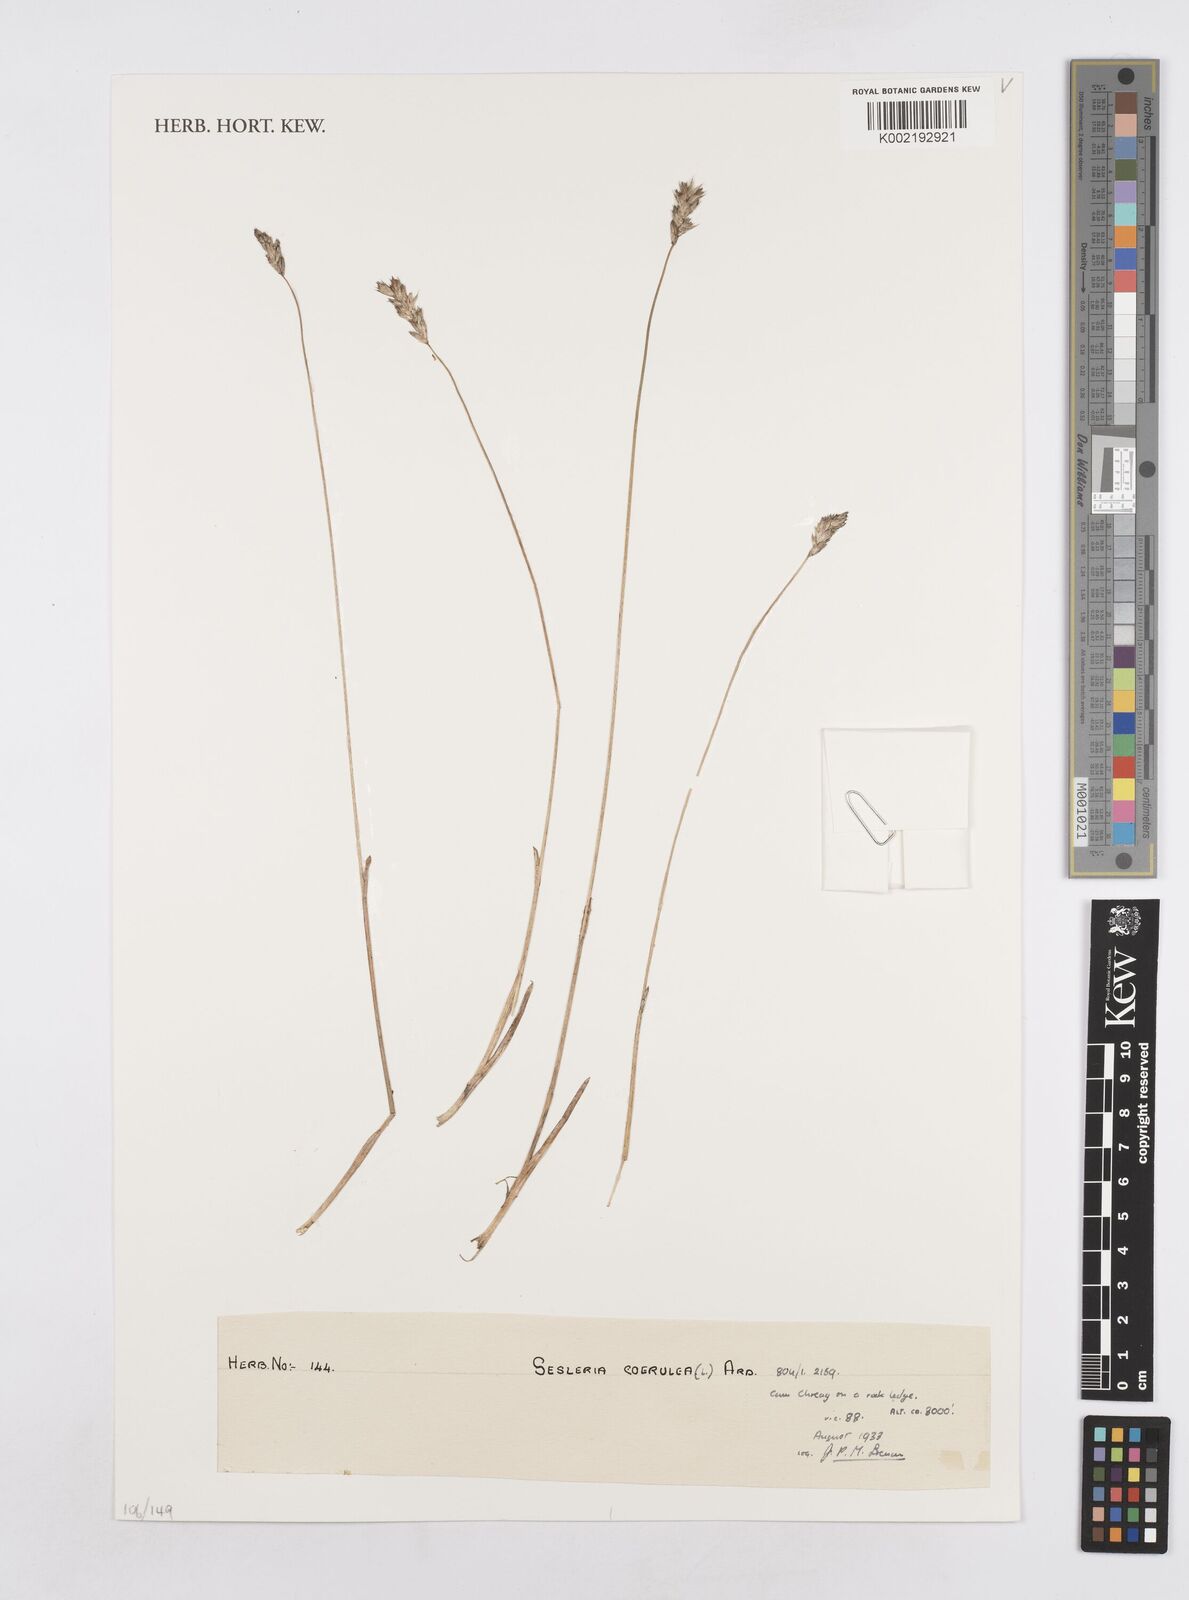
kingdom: Plantae
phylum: Tracheophyta
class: Liliopsida
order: Poales
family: Poaceae
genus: Sesleria
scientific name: Sesleria caerulea
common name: Blue moor-grass
